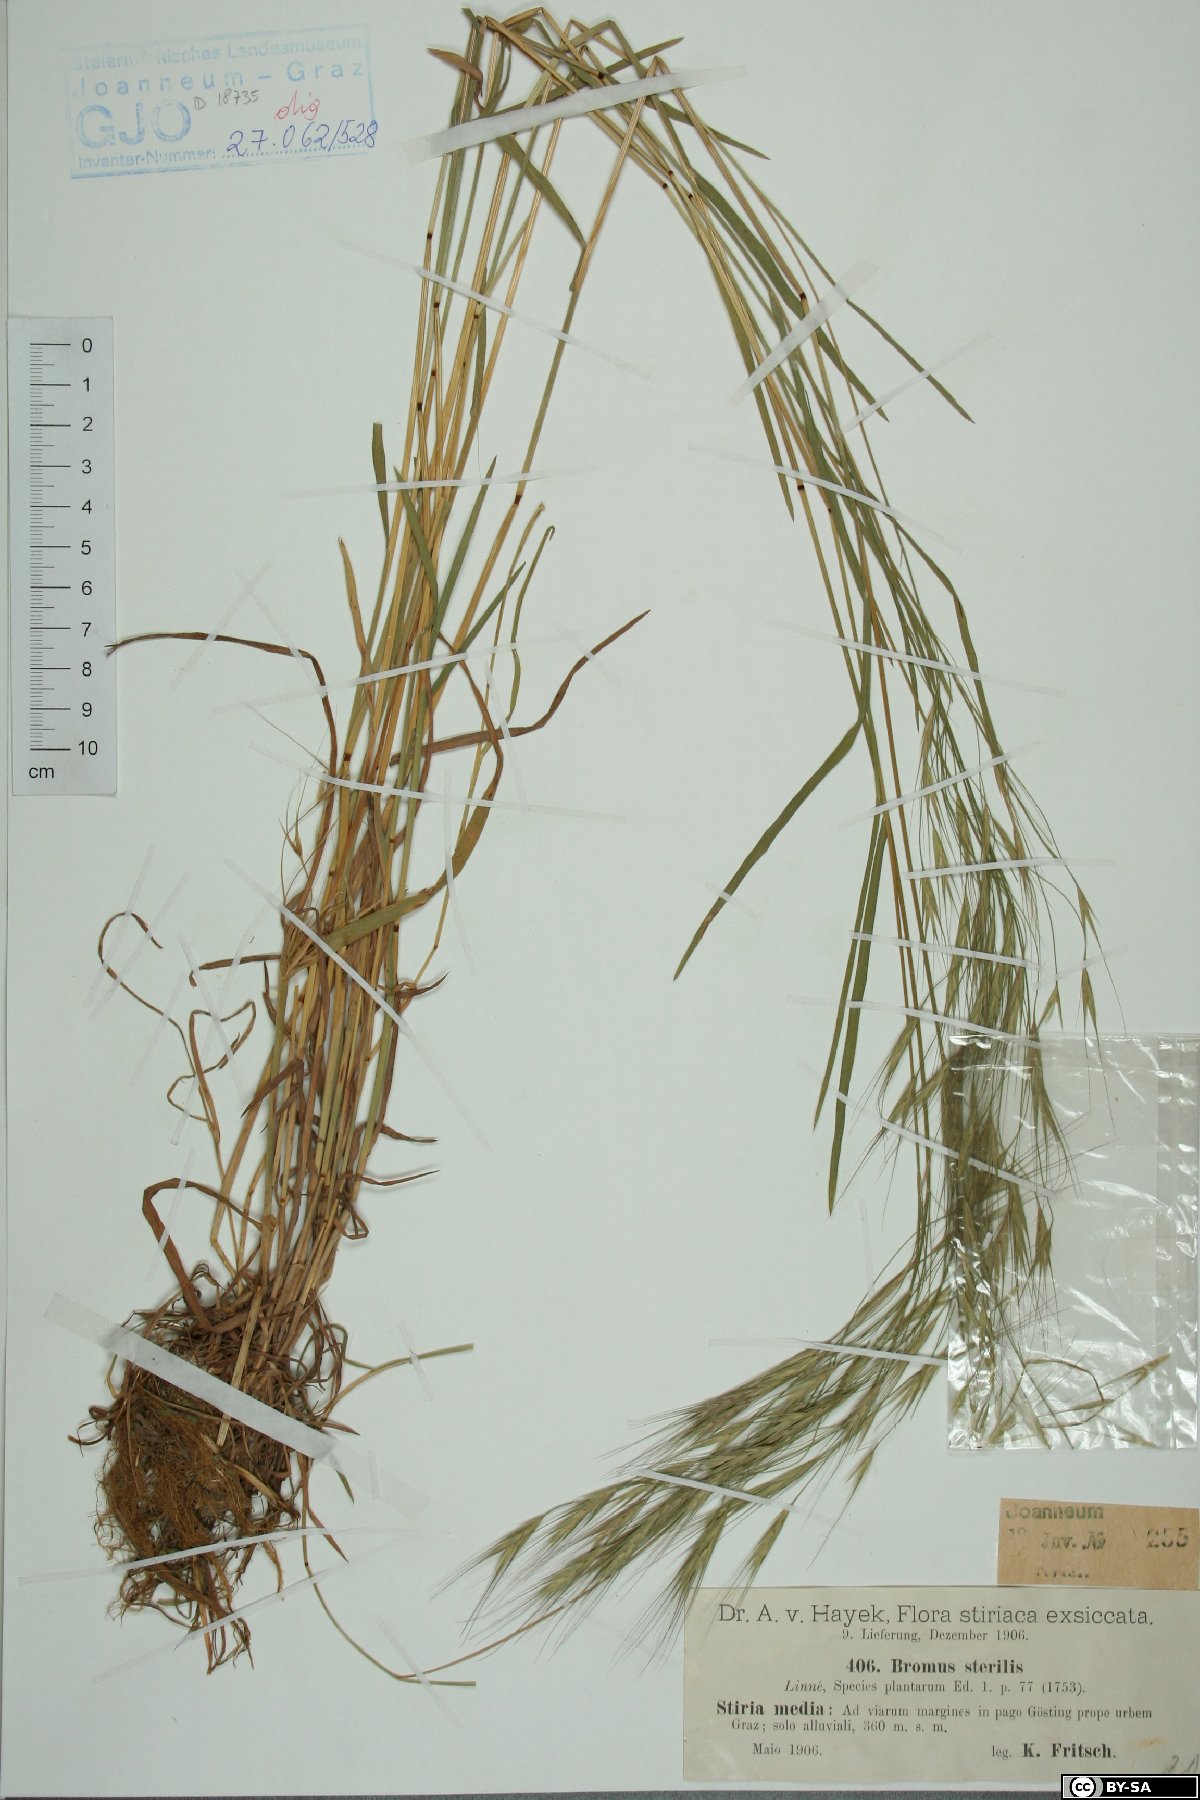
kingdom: Plantae
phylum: Tracheophyta
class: Liliopsida
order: Poales
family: Poaceae
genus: Bromus
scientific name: Bromus sterilis
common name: Poverty brome
